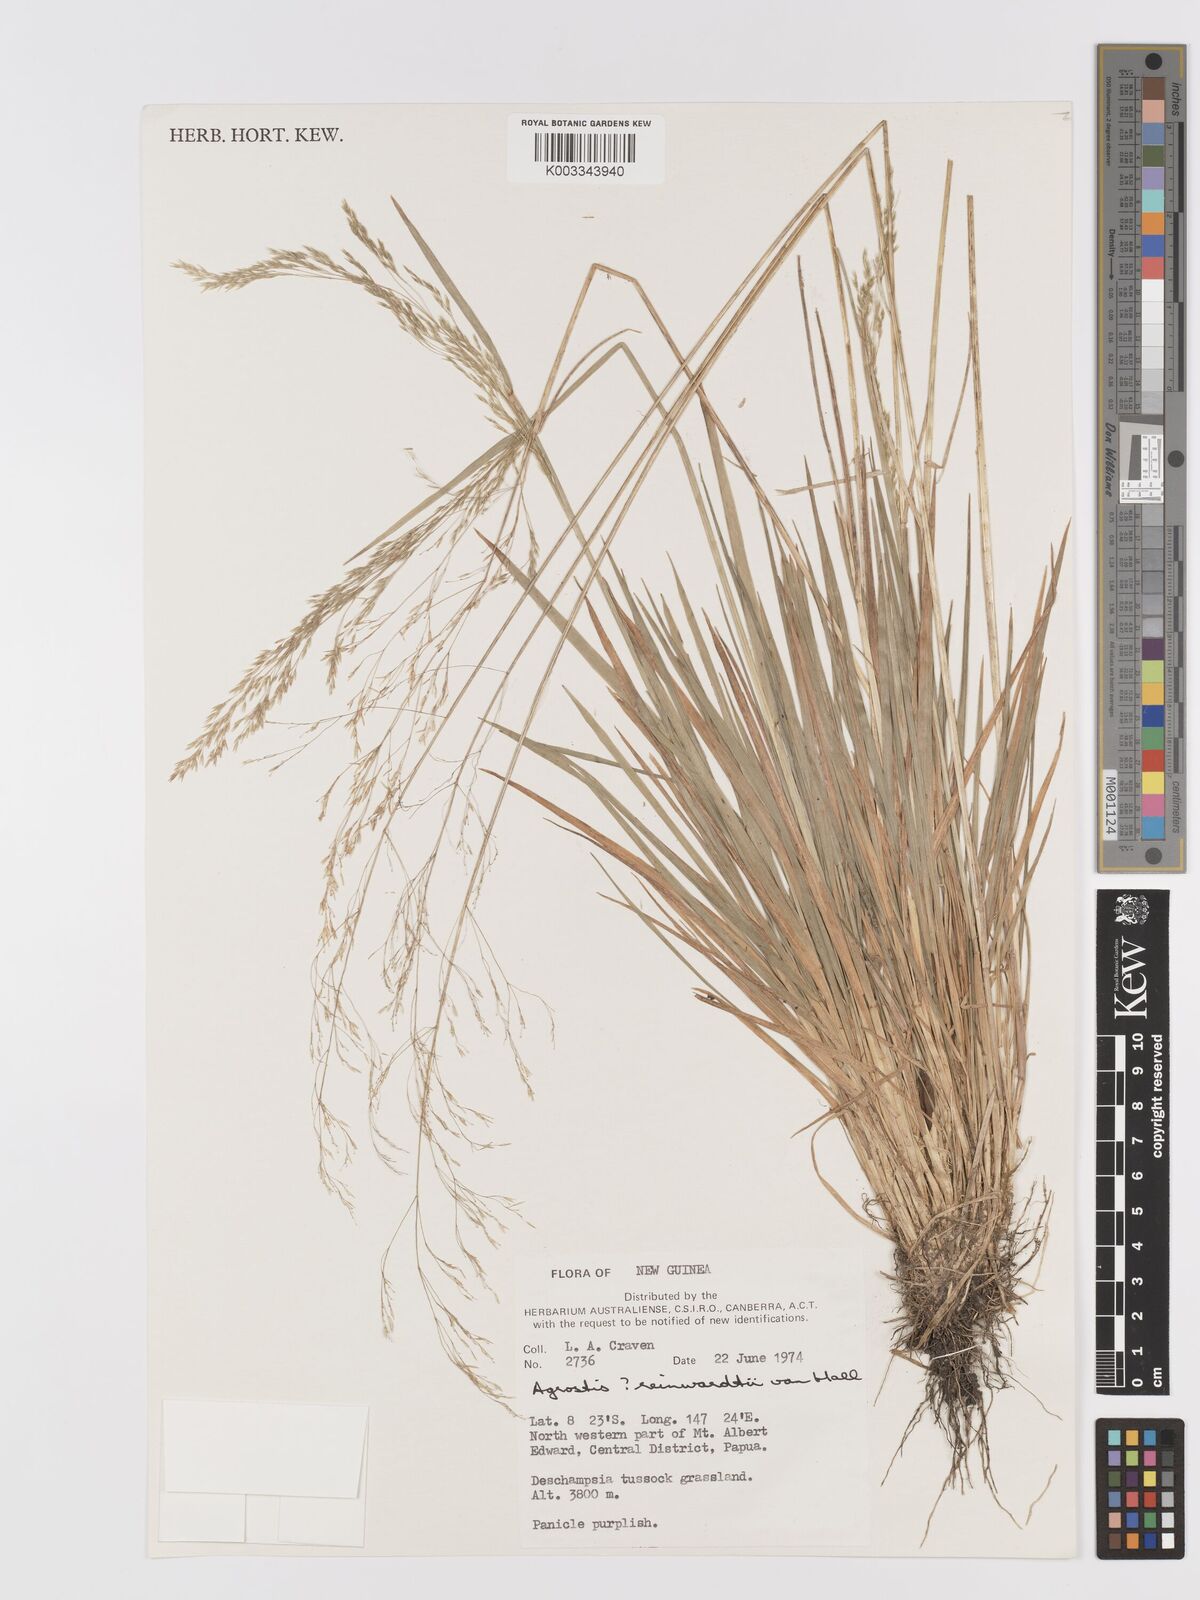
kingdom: Plantae
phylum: Tracheophyta
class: Liliopsida
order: Poales
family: Poaceae
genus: Agrostis
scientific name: Agrostis
